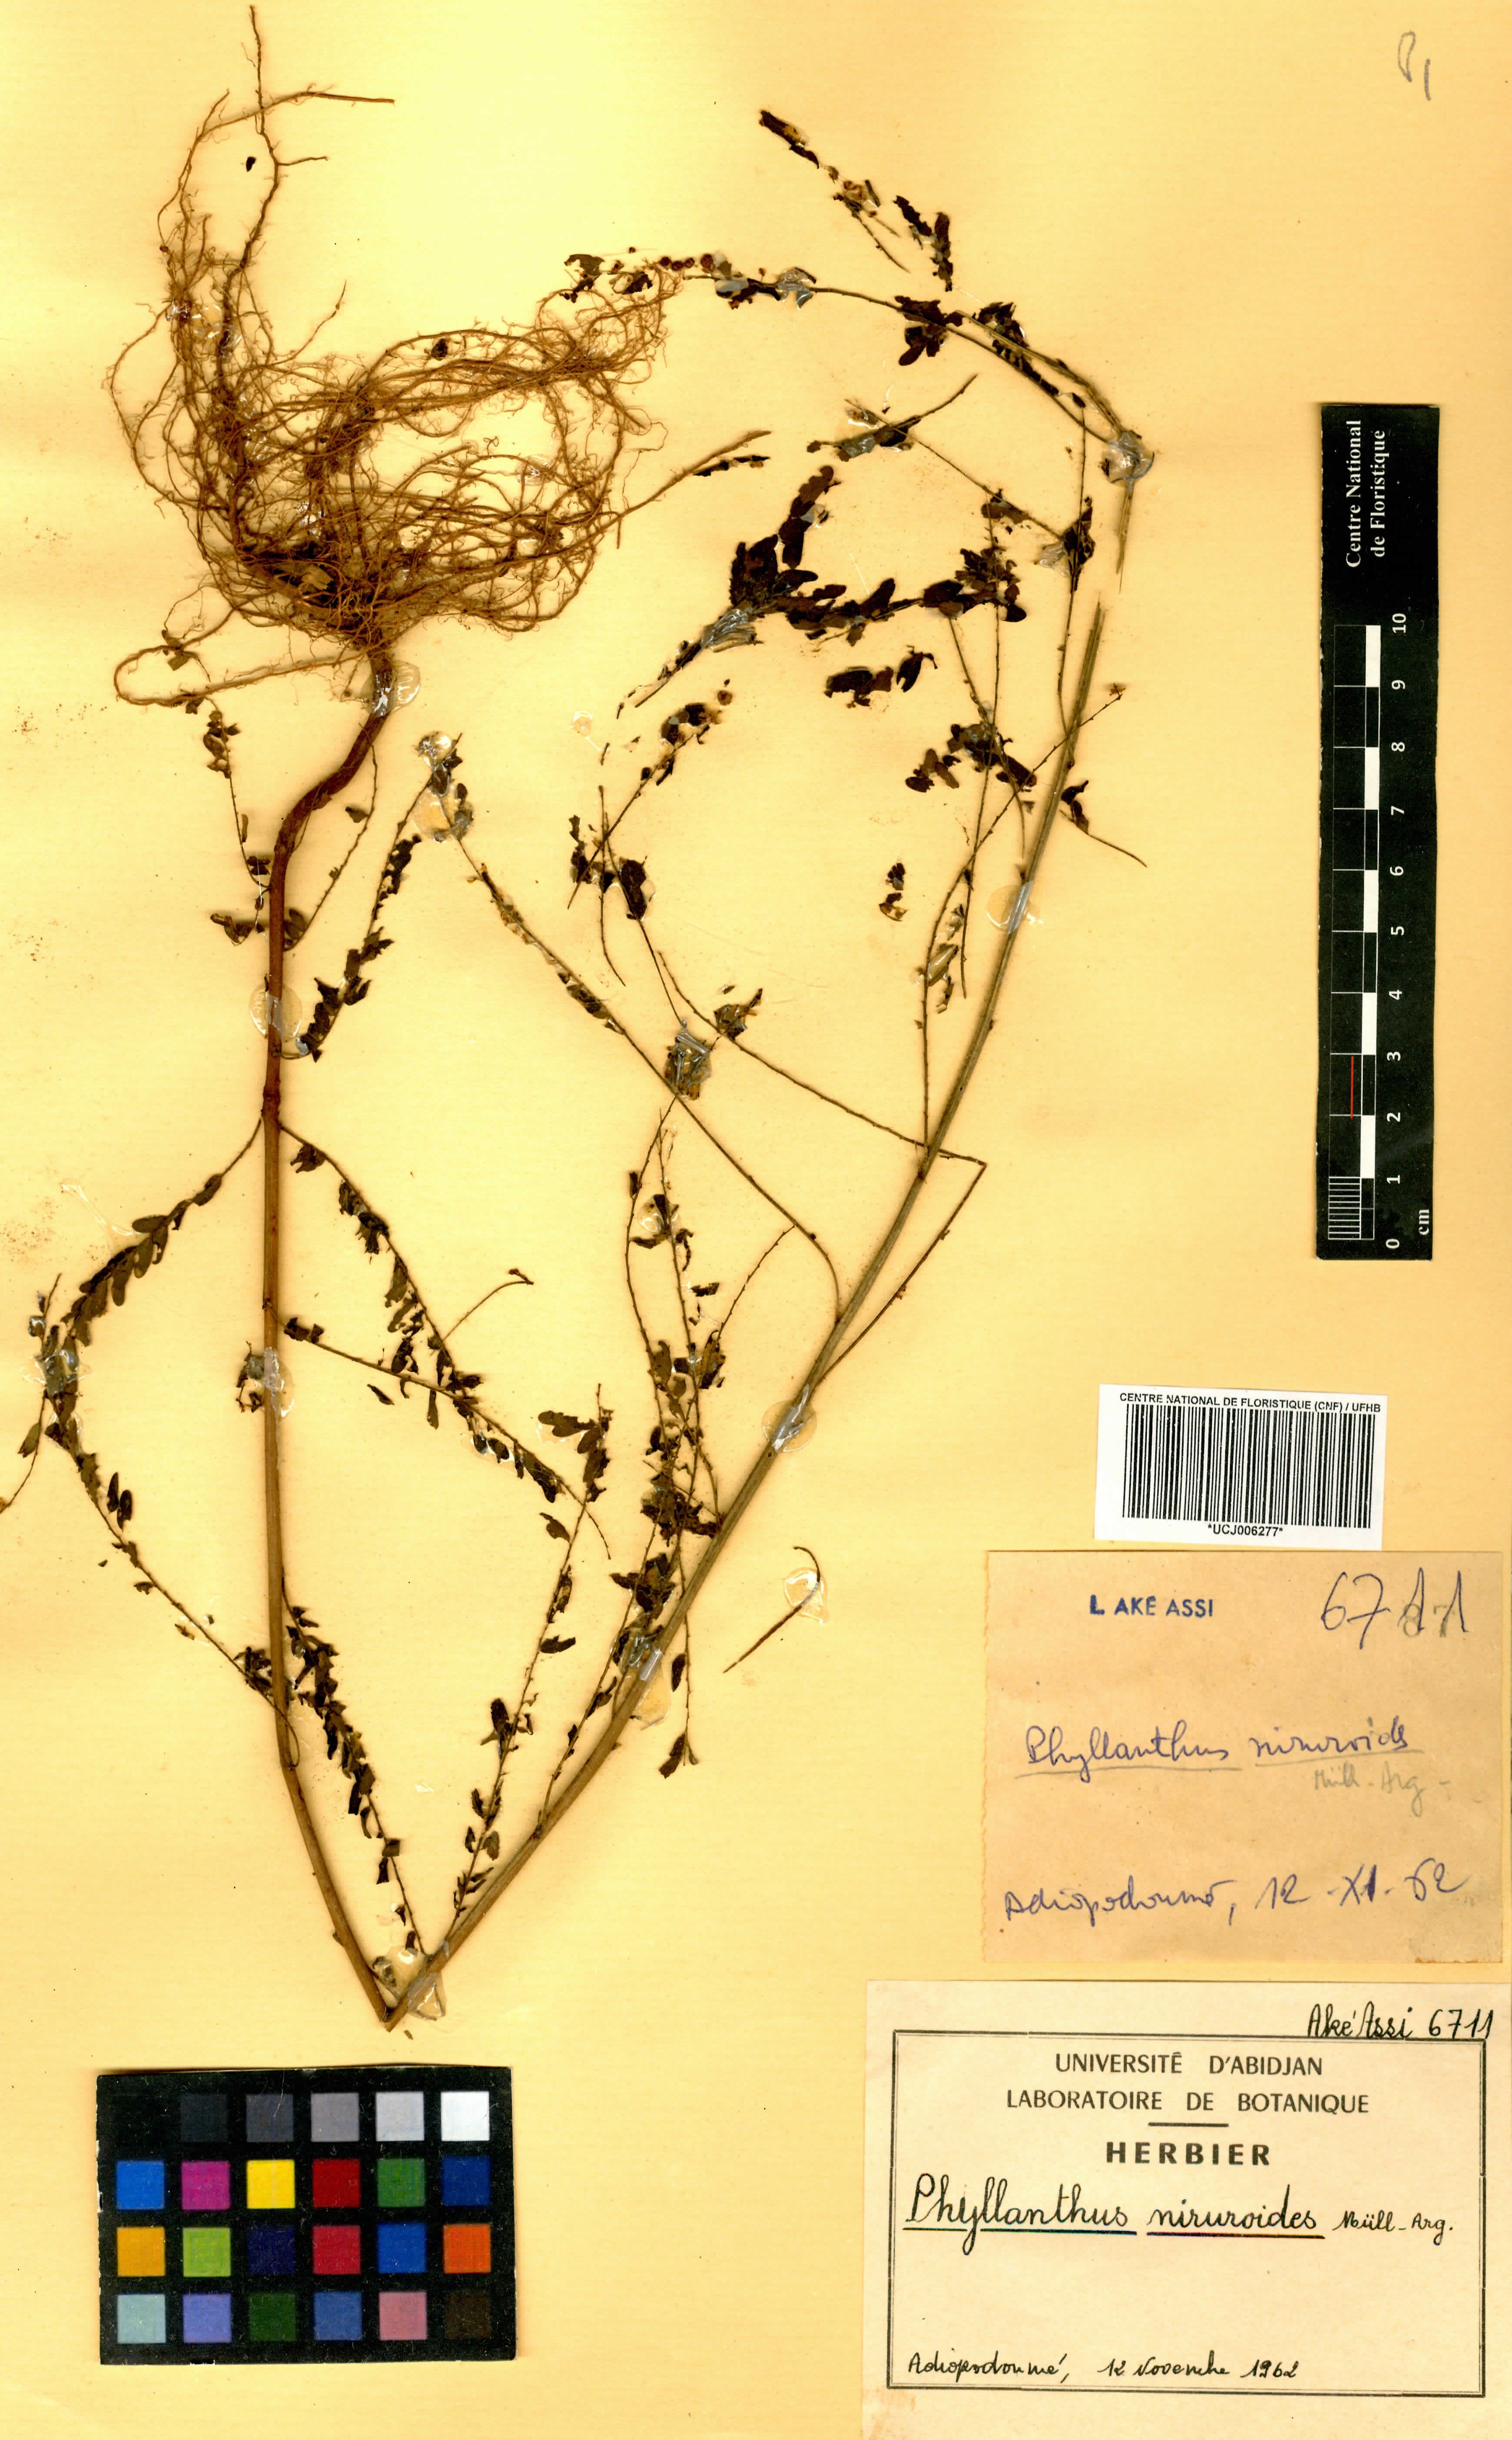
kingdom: Plantae
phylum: Tracheophyta
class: Magnoliopsida
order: Malpighiales
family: Phyllanthaceae
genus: Phyllanthus
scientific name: Phyllanthus niruroides
